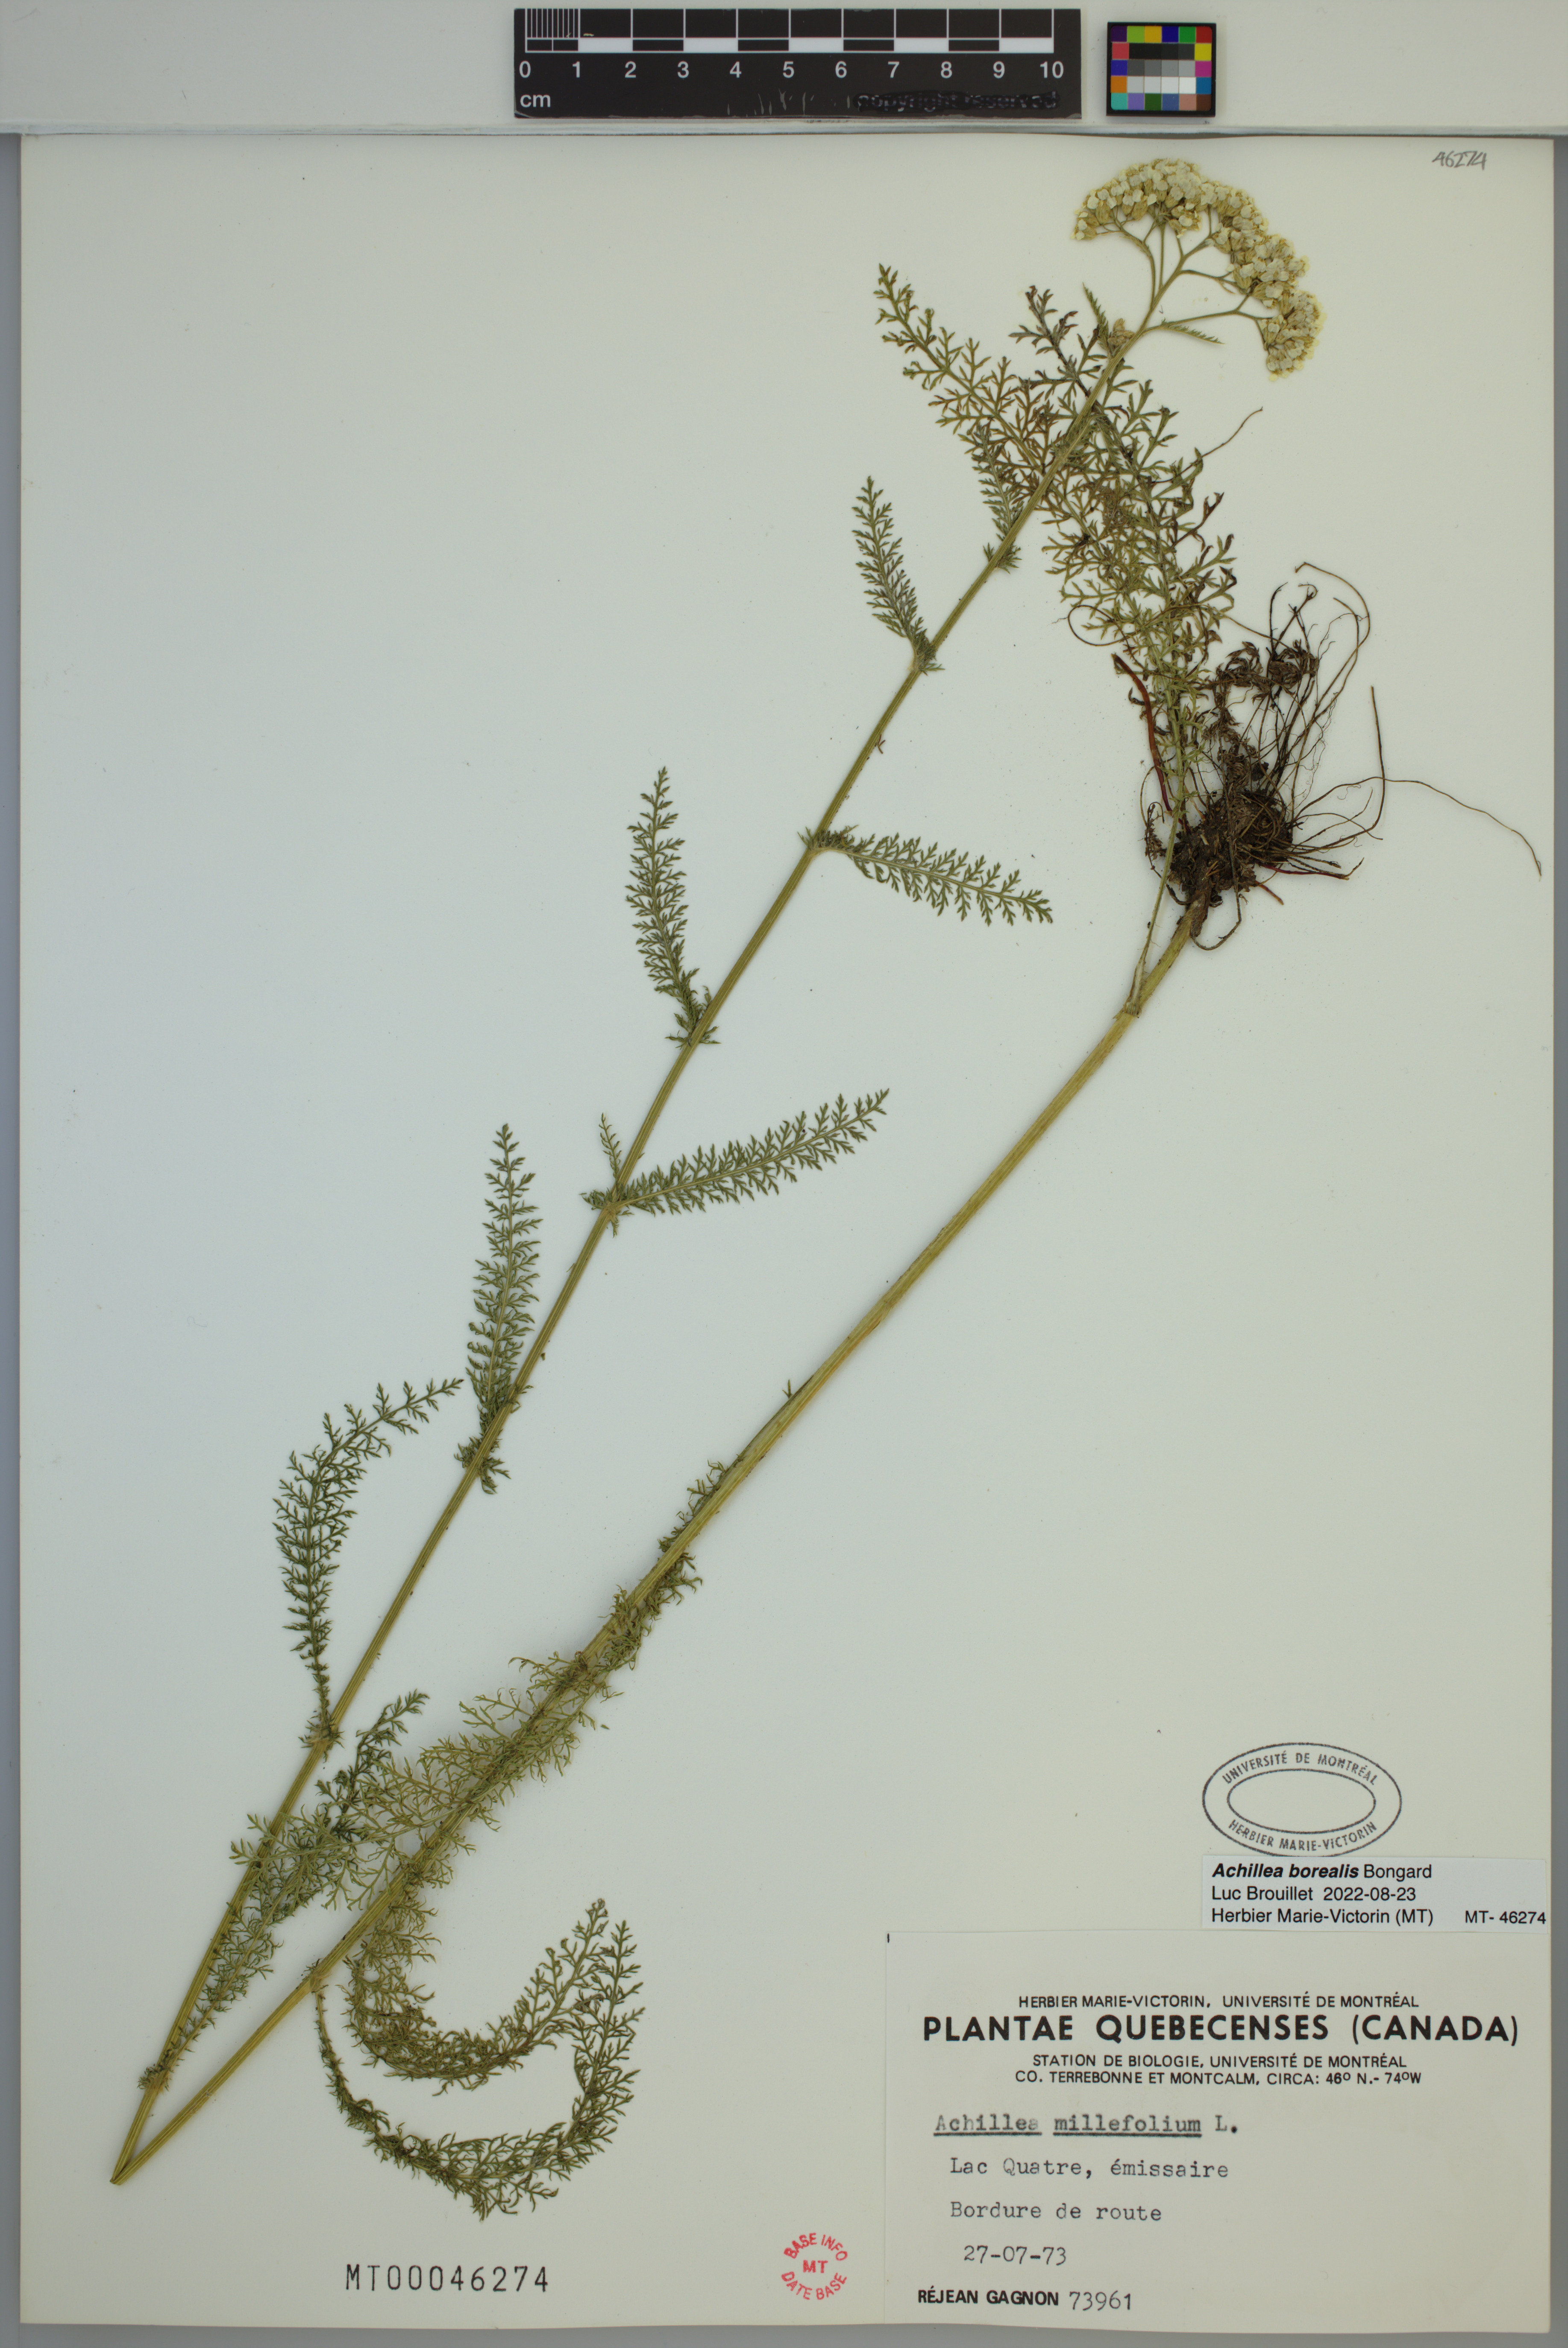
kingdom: Plantae
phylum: Tracheophyta
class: Magnoliopsida
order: Asterales
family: Asteraceae
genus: Achillea
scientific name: Achillea millefolium
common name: Yarrow
